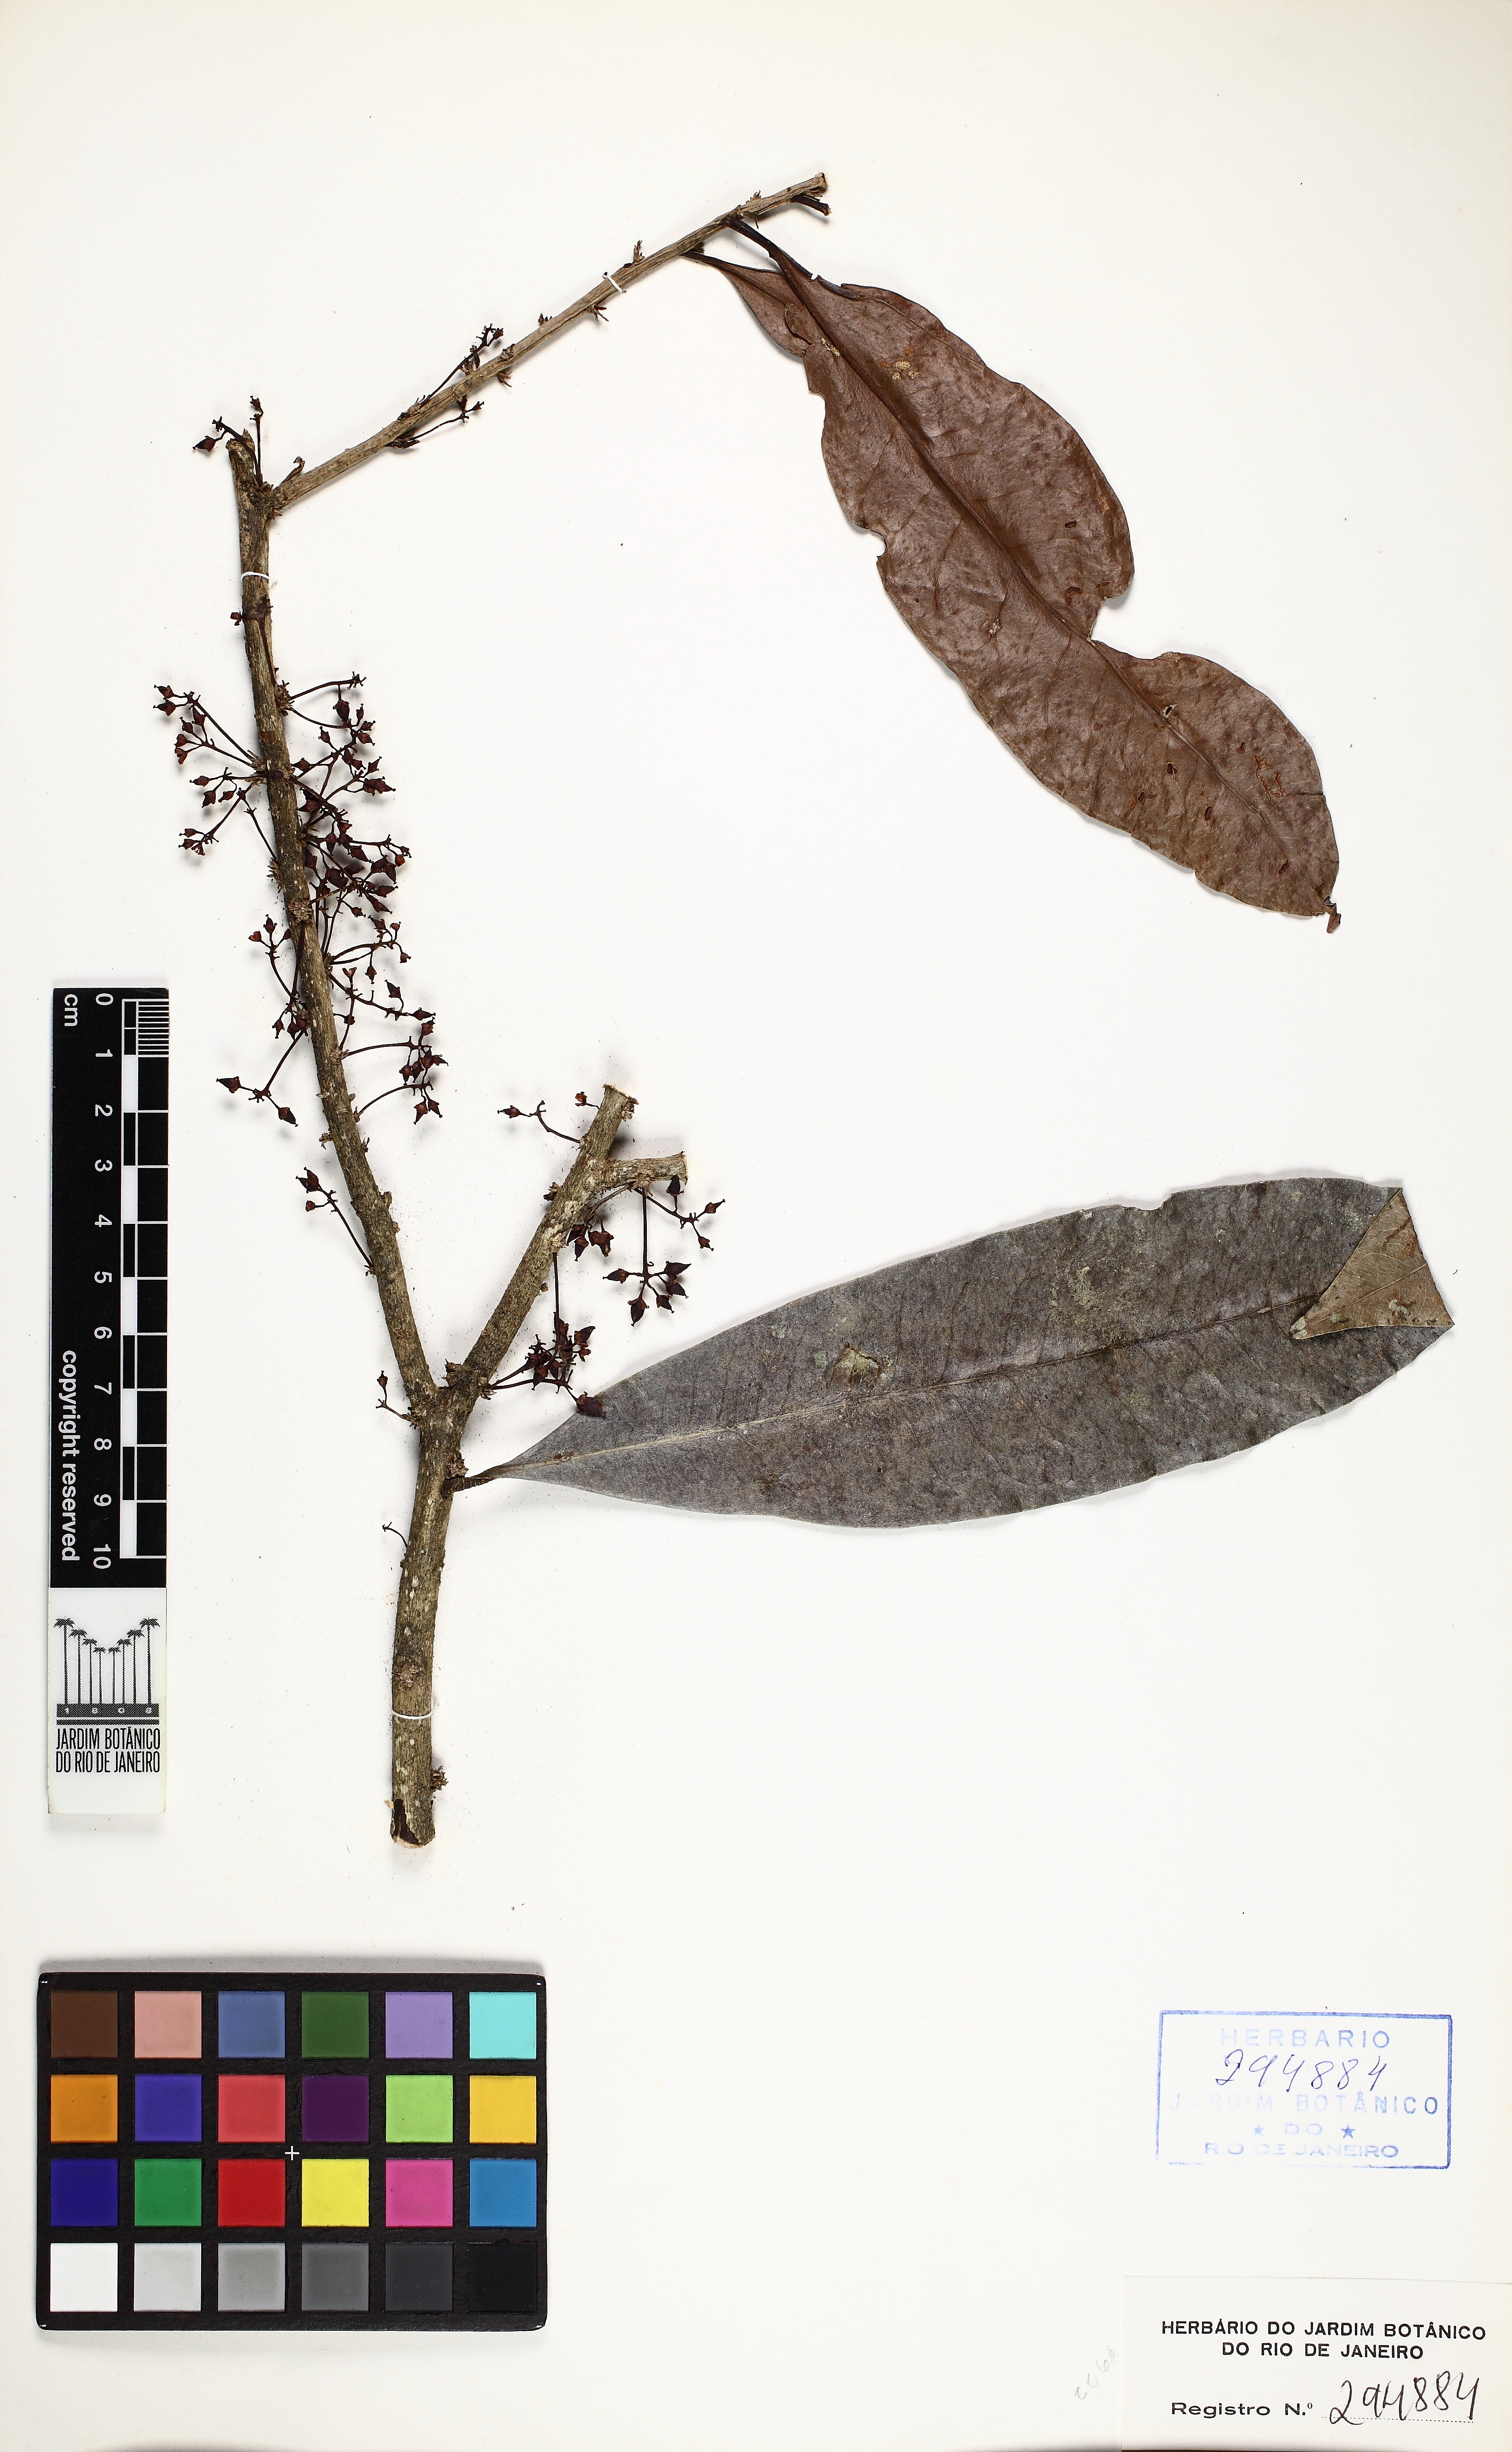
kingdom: Plantae
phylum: Tracheophyta
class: Magnoliopsida
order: Malvales
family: Thymelaeaceae
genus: Daphnopsis
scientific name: Daphnopsis schwackeana
